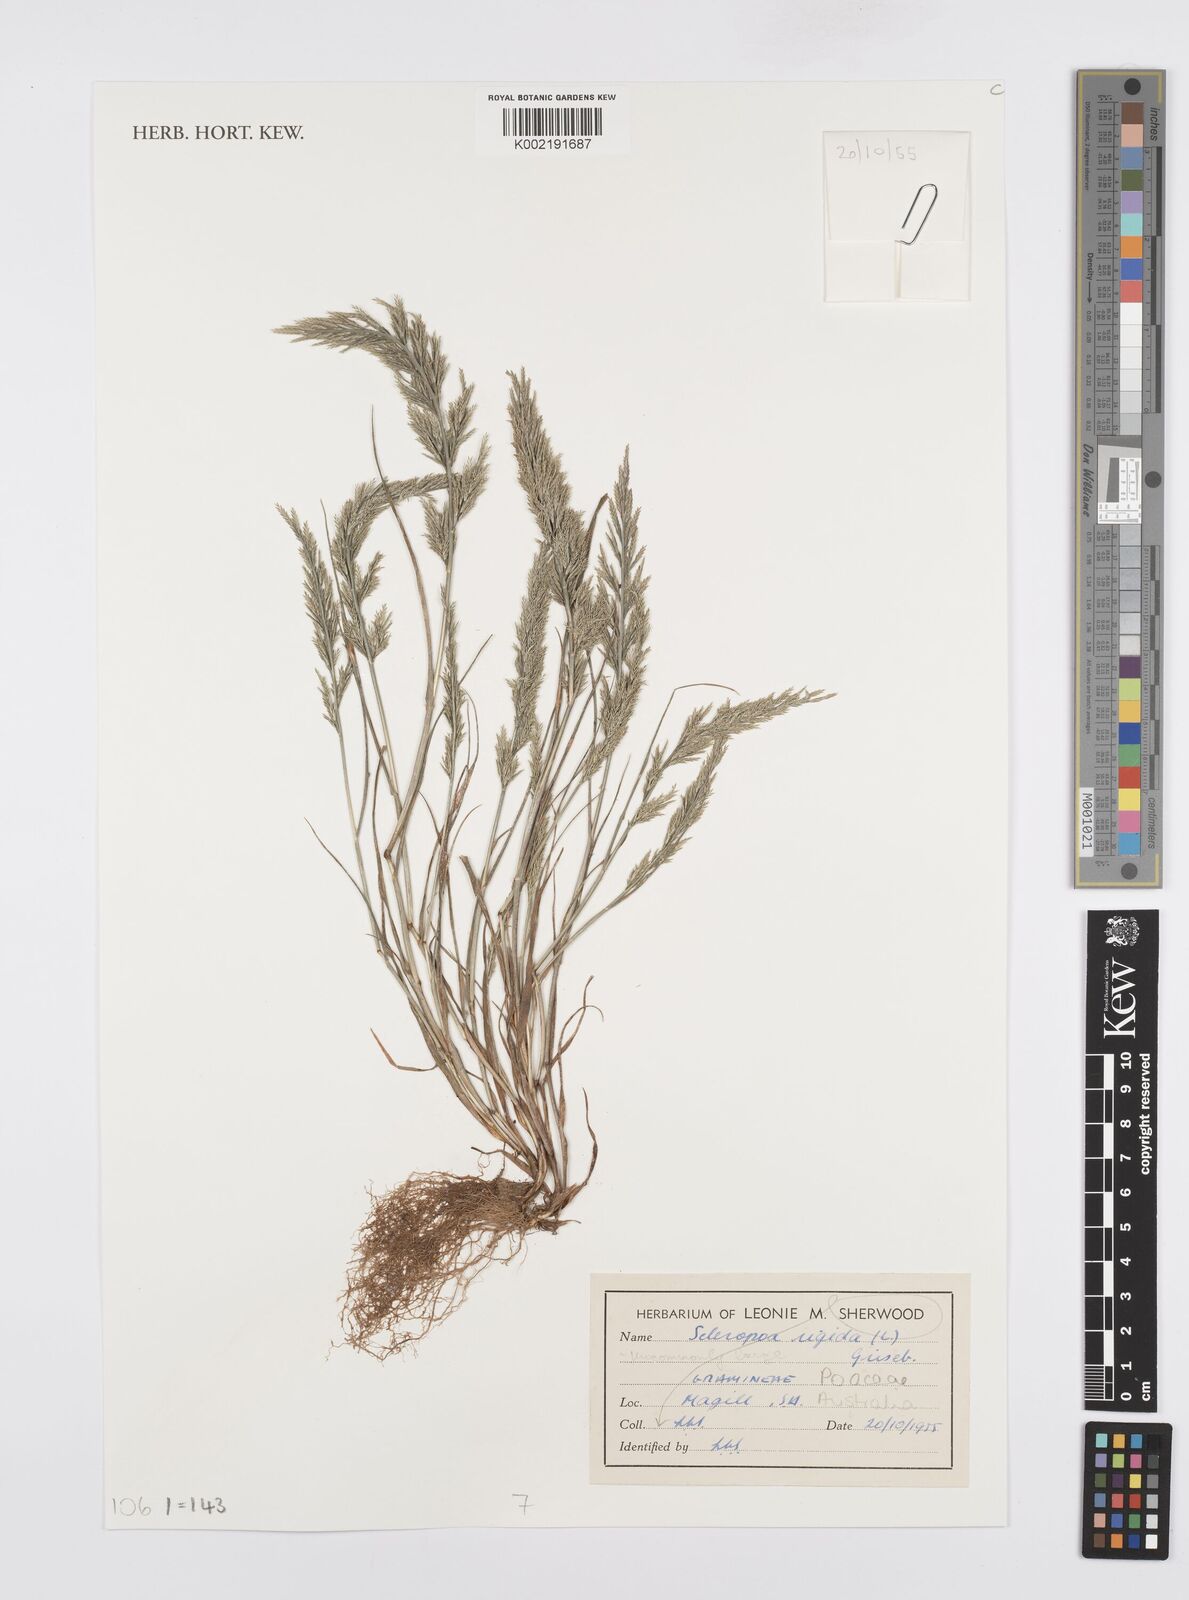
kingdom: Plantae
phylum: Tracheophyta
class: Liliopsida
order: Poales
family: Poaceae
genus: Catapodium
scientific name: Catapodium rigidum
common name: Fern-grass
